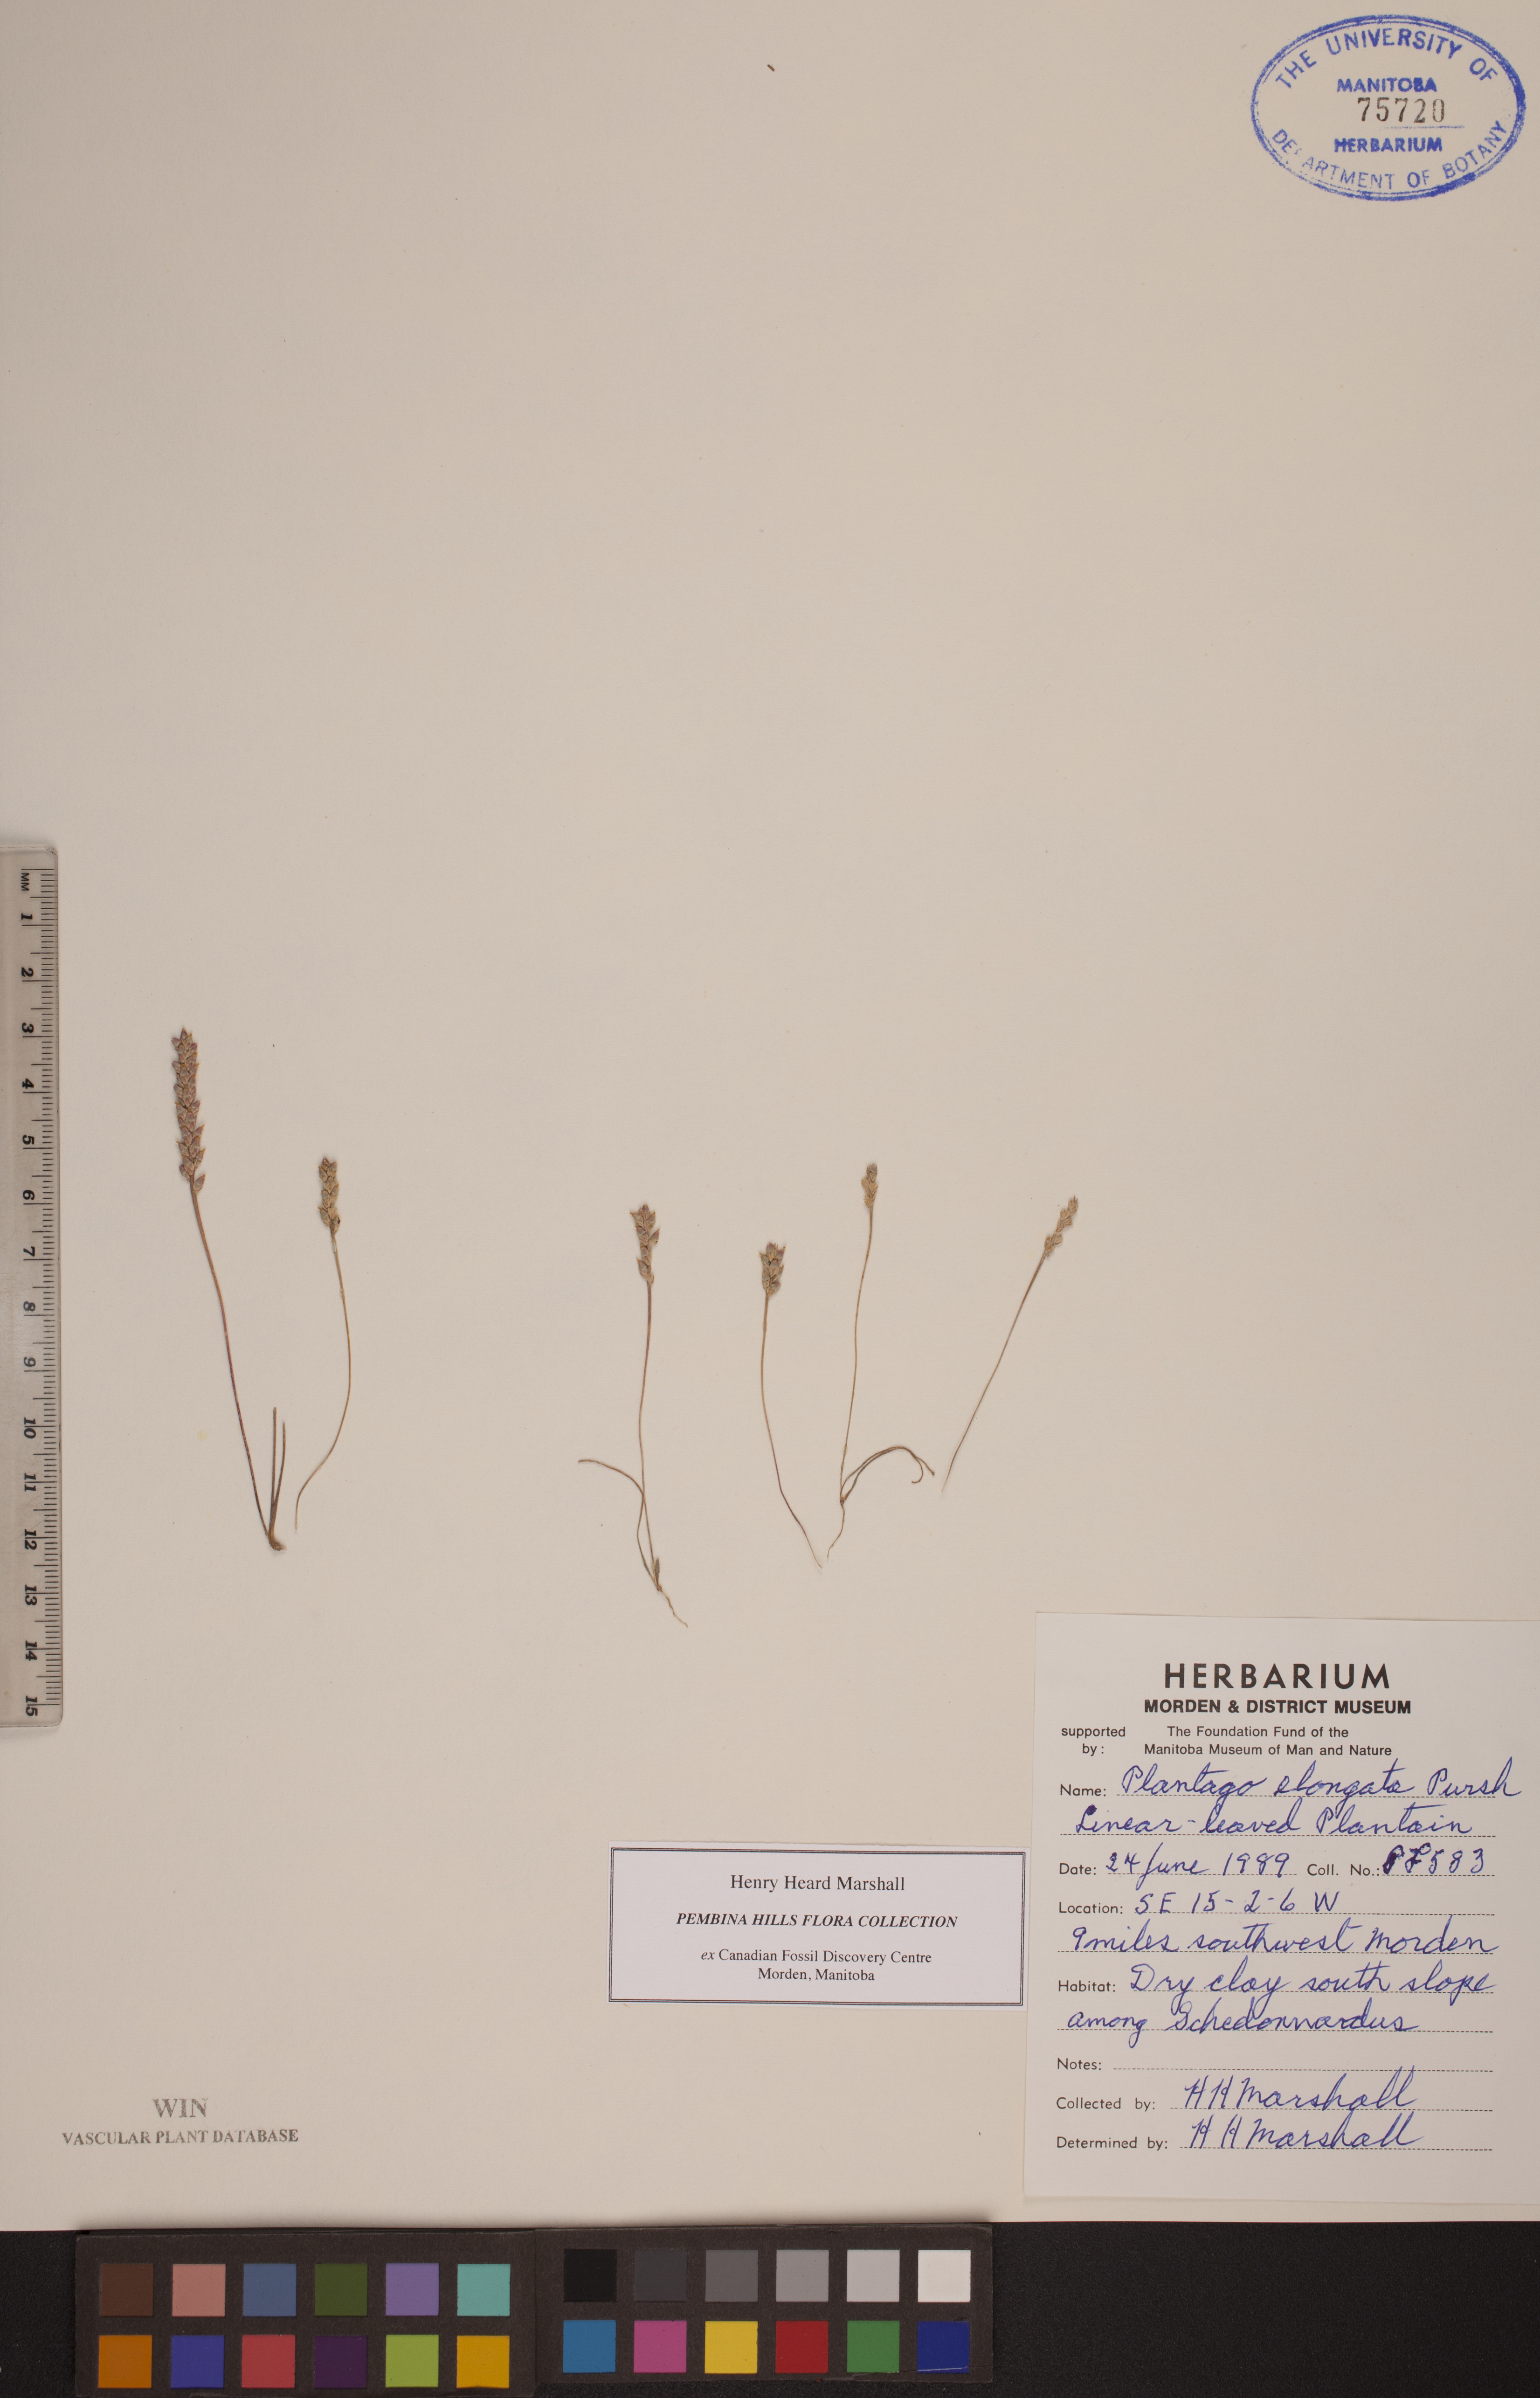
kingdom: Plantae
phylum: Tracheophyta
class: Magnoliopsida
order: Lamiales
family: Plantaginaceae
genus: Plantago
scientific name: Plantago elongata
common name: Linear-leaved plantain
